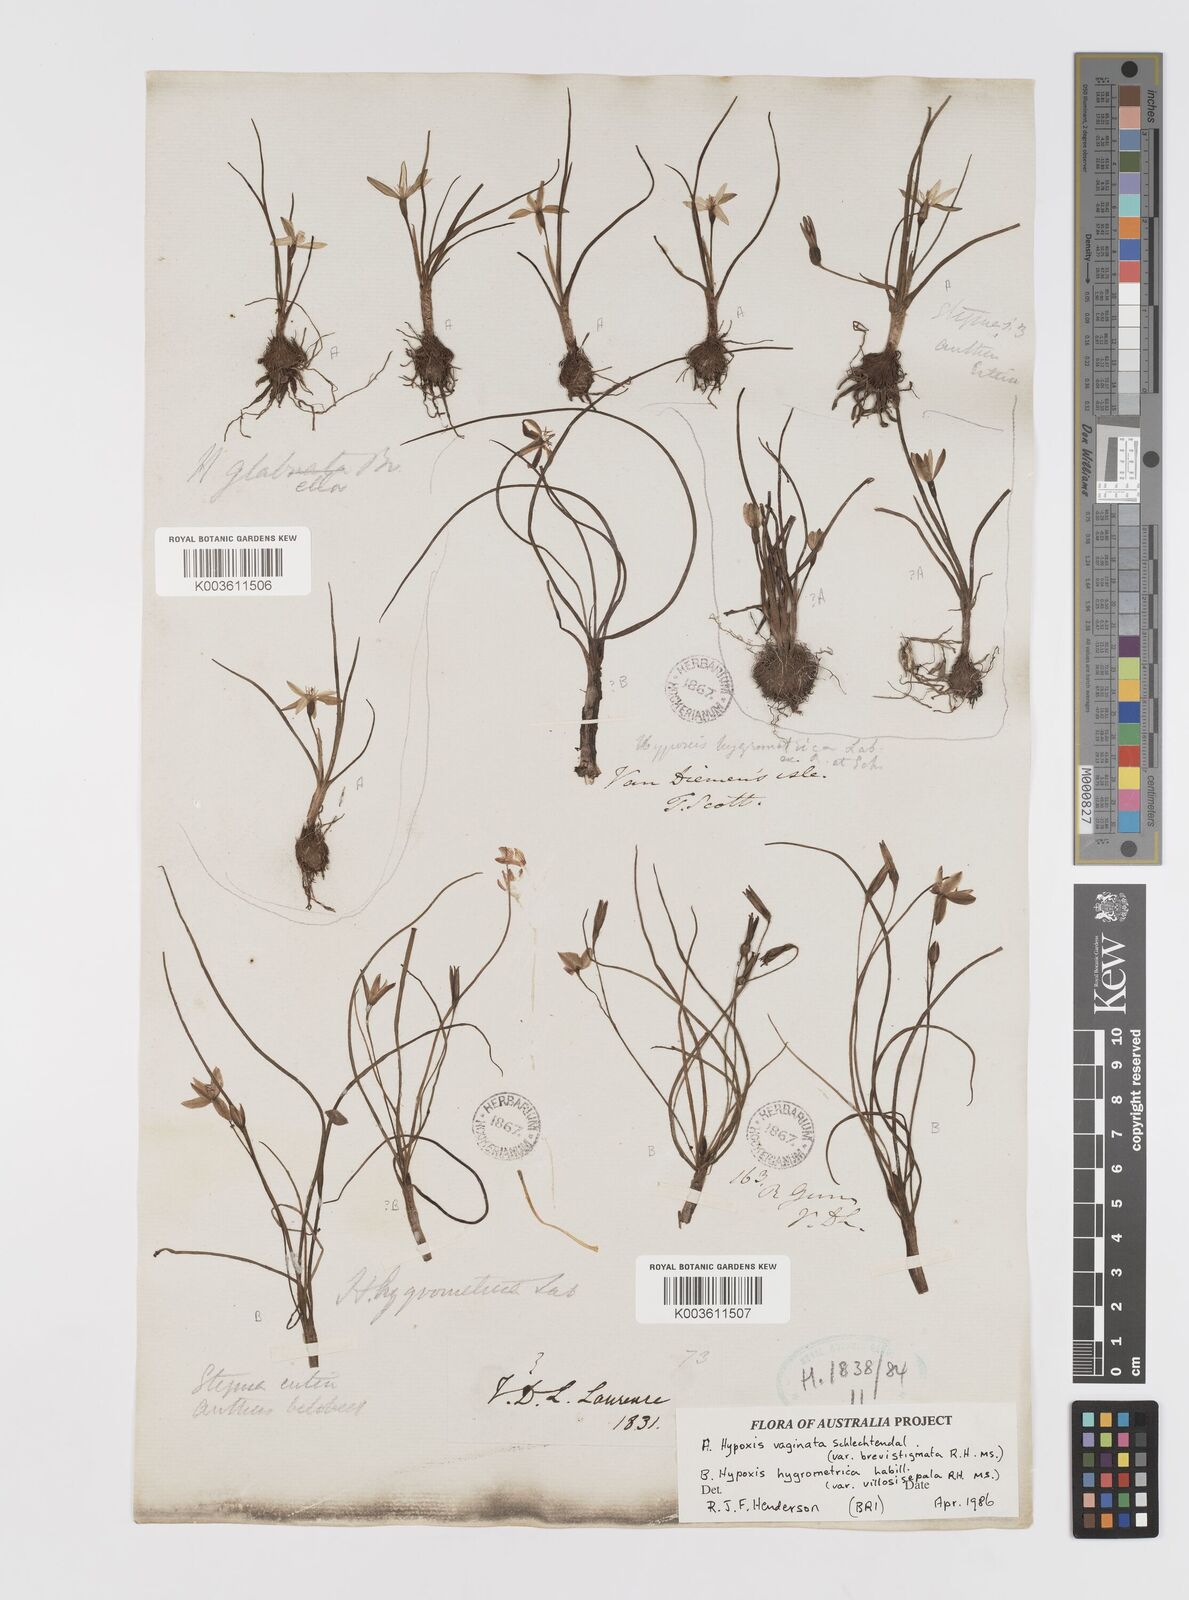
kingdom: Plantae
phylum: Tracheophyta
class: Liliopsida
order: Asparagales
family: Hypoxidaceae
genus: Hypoxis
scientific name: Hypoxis hygrometrica
